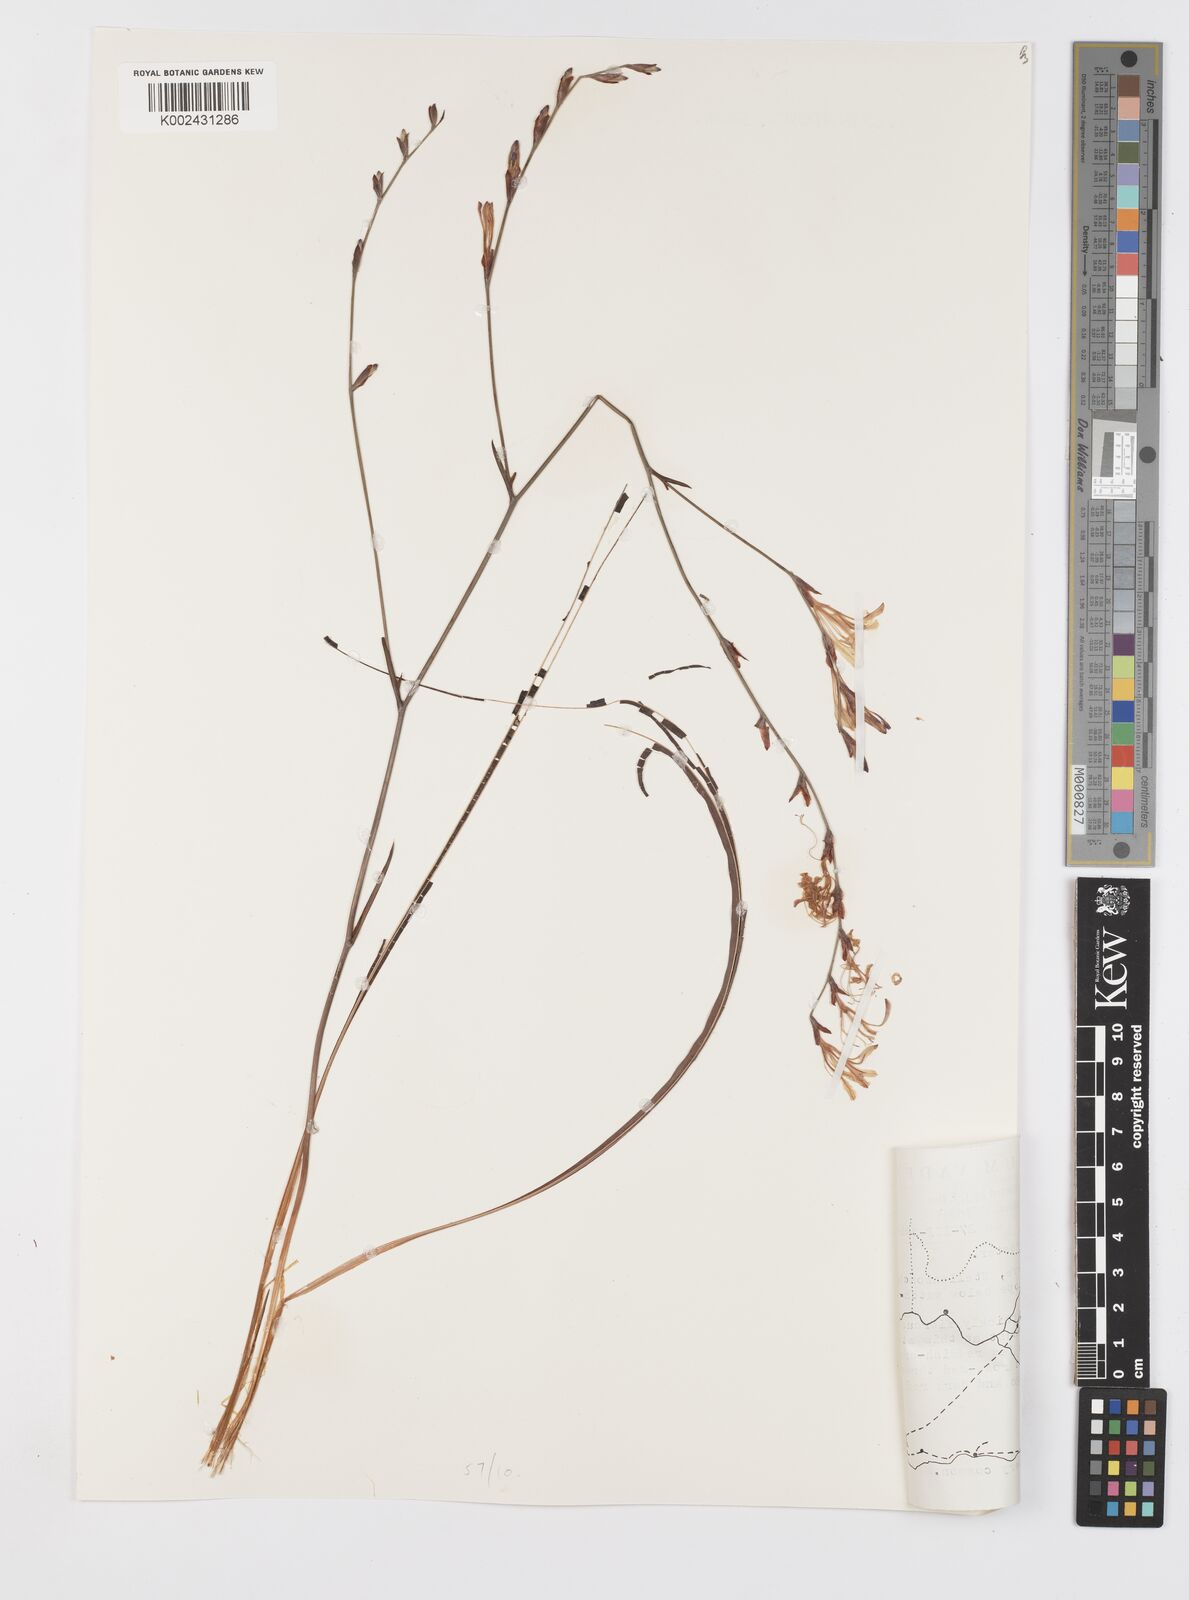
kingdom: Plantae
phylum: Tracheophyta
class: Liliopsida
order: Asparagales
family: Iridaceae
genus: Tritoniopsis
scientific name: Tritoniopsis dodii
